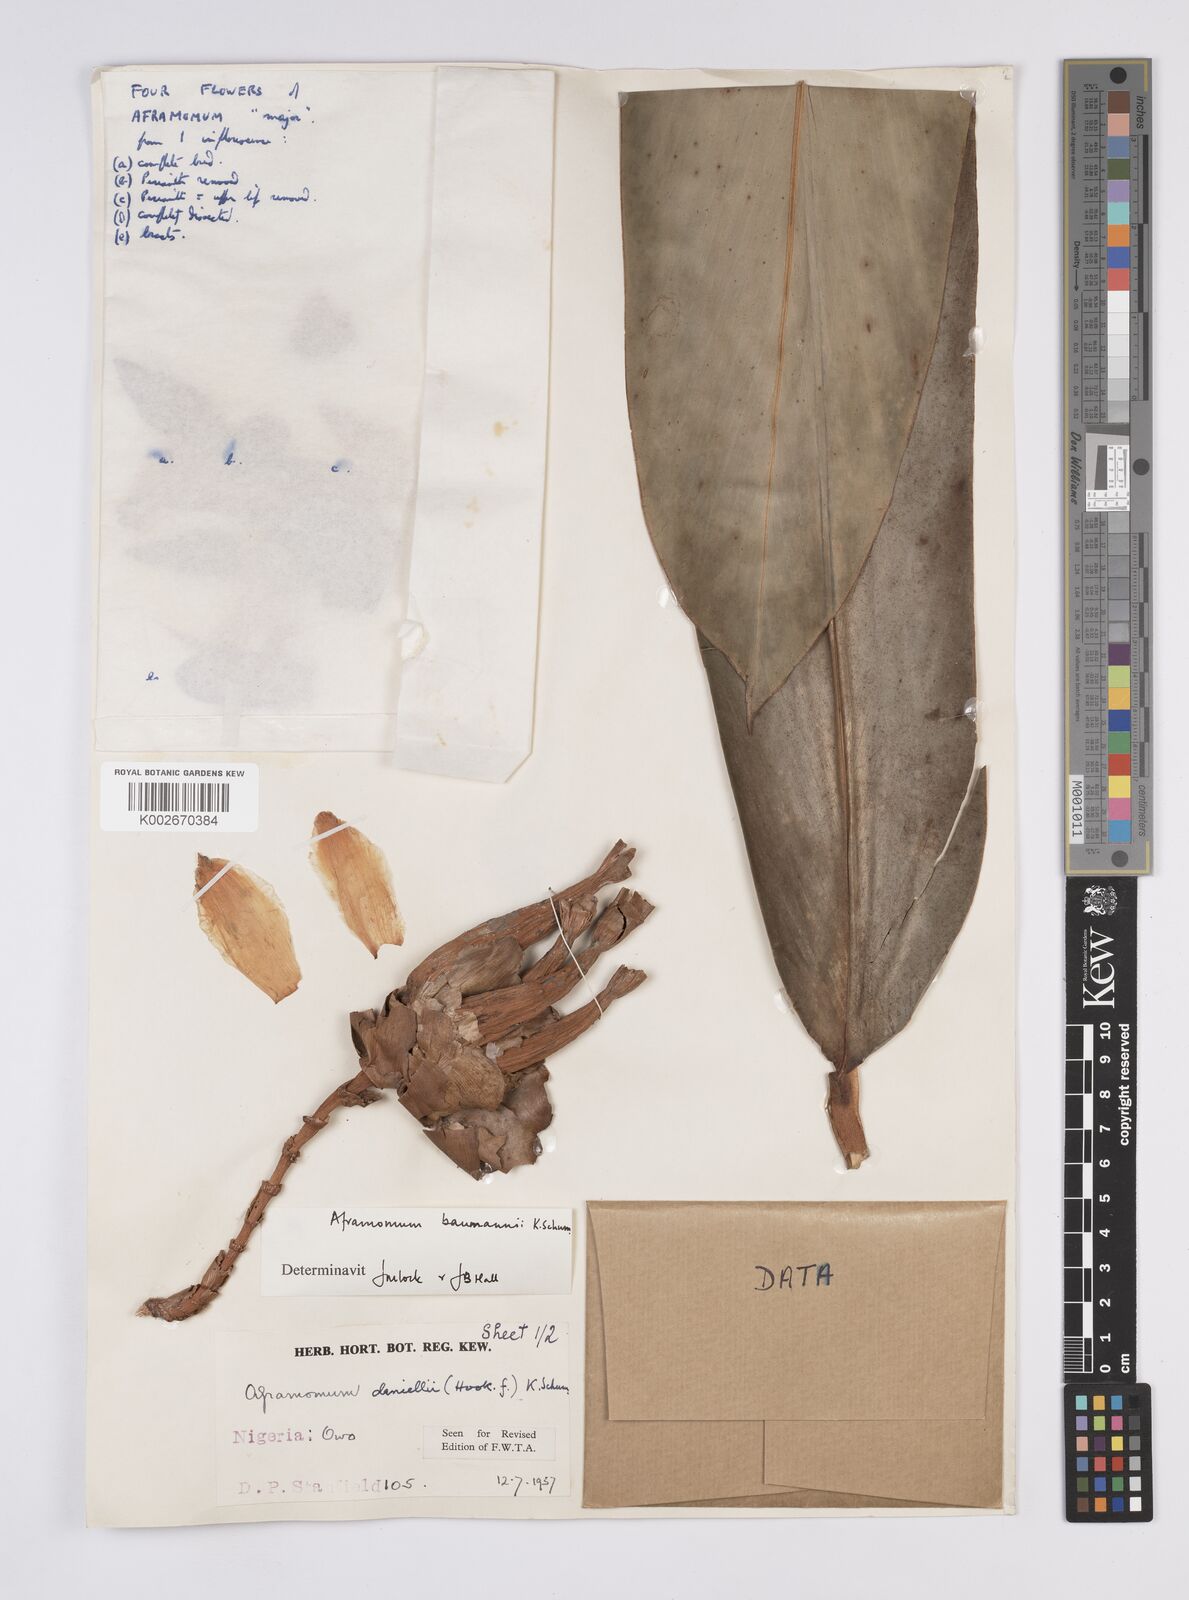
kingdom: Plantae
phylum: Tracheophyta
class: Liliopsida
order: Zingiberales
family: Zingiberaceae
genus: Aframomum
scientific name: Aframomum angustifolium
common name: Guinea grains
